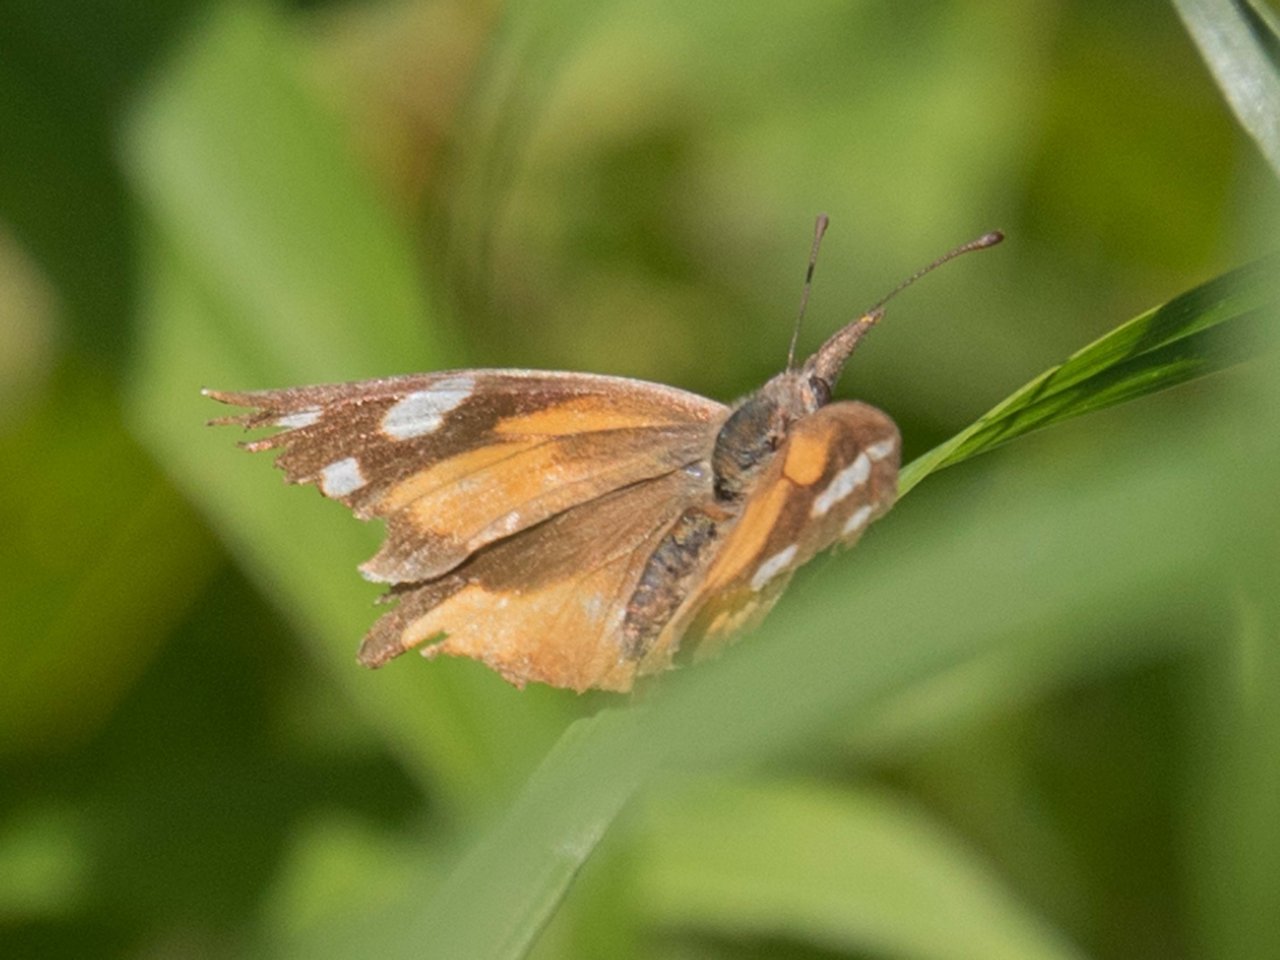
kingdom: Animalia
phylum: Arthropoda
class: Insecta
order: Lepidoptera
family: Nymphalidae
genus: Libytheana
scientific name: Libytheana carinenta
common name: American Snout
